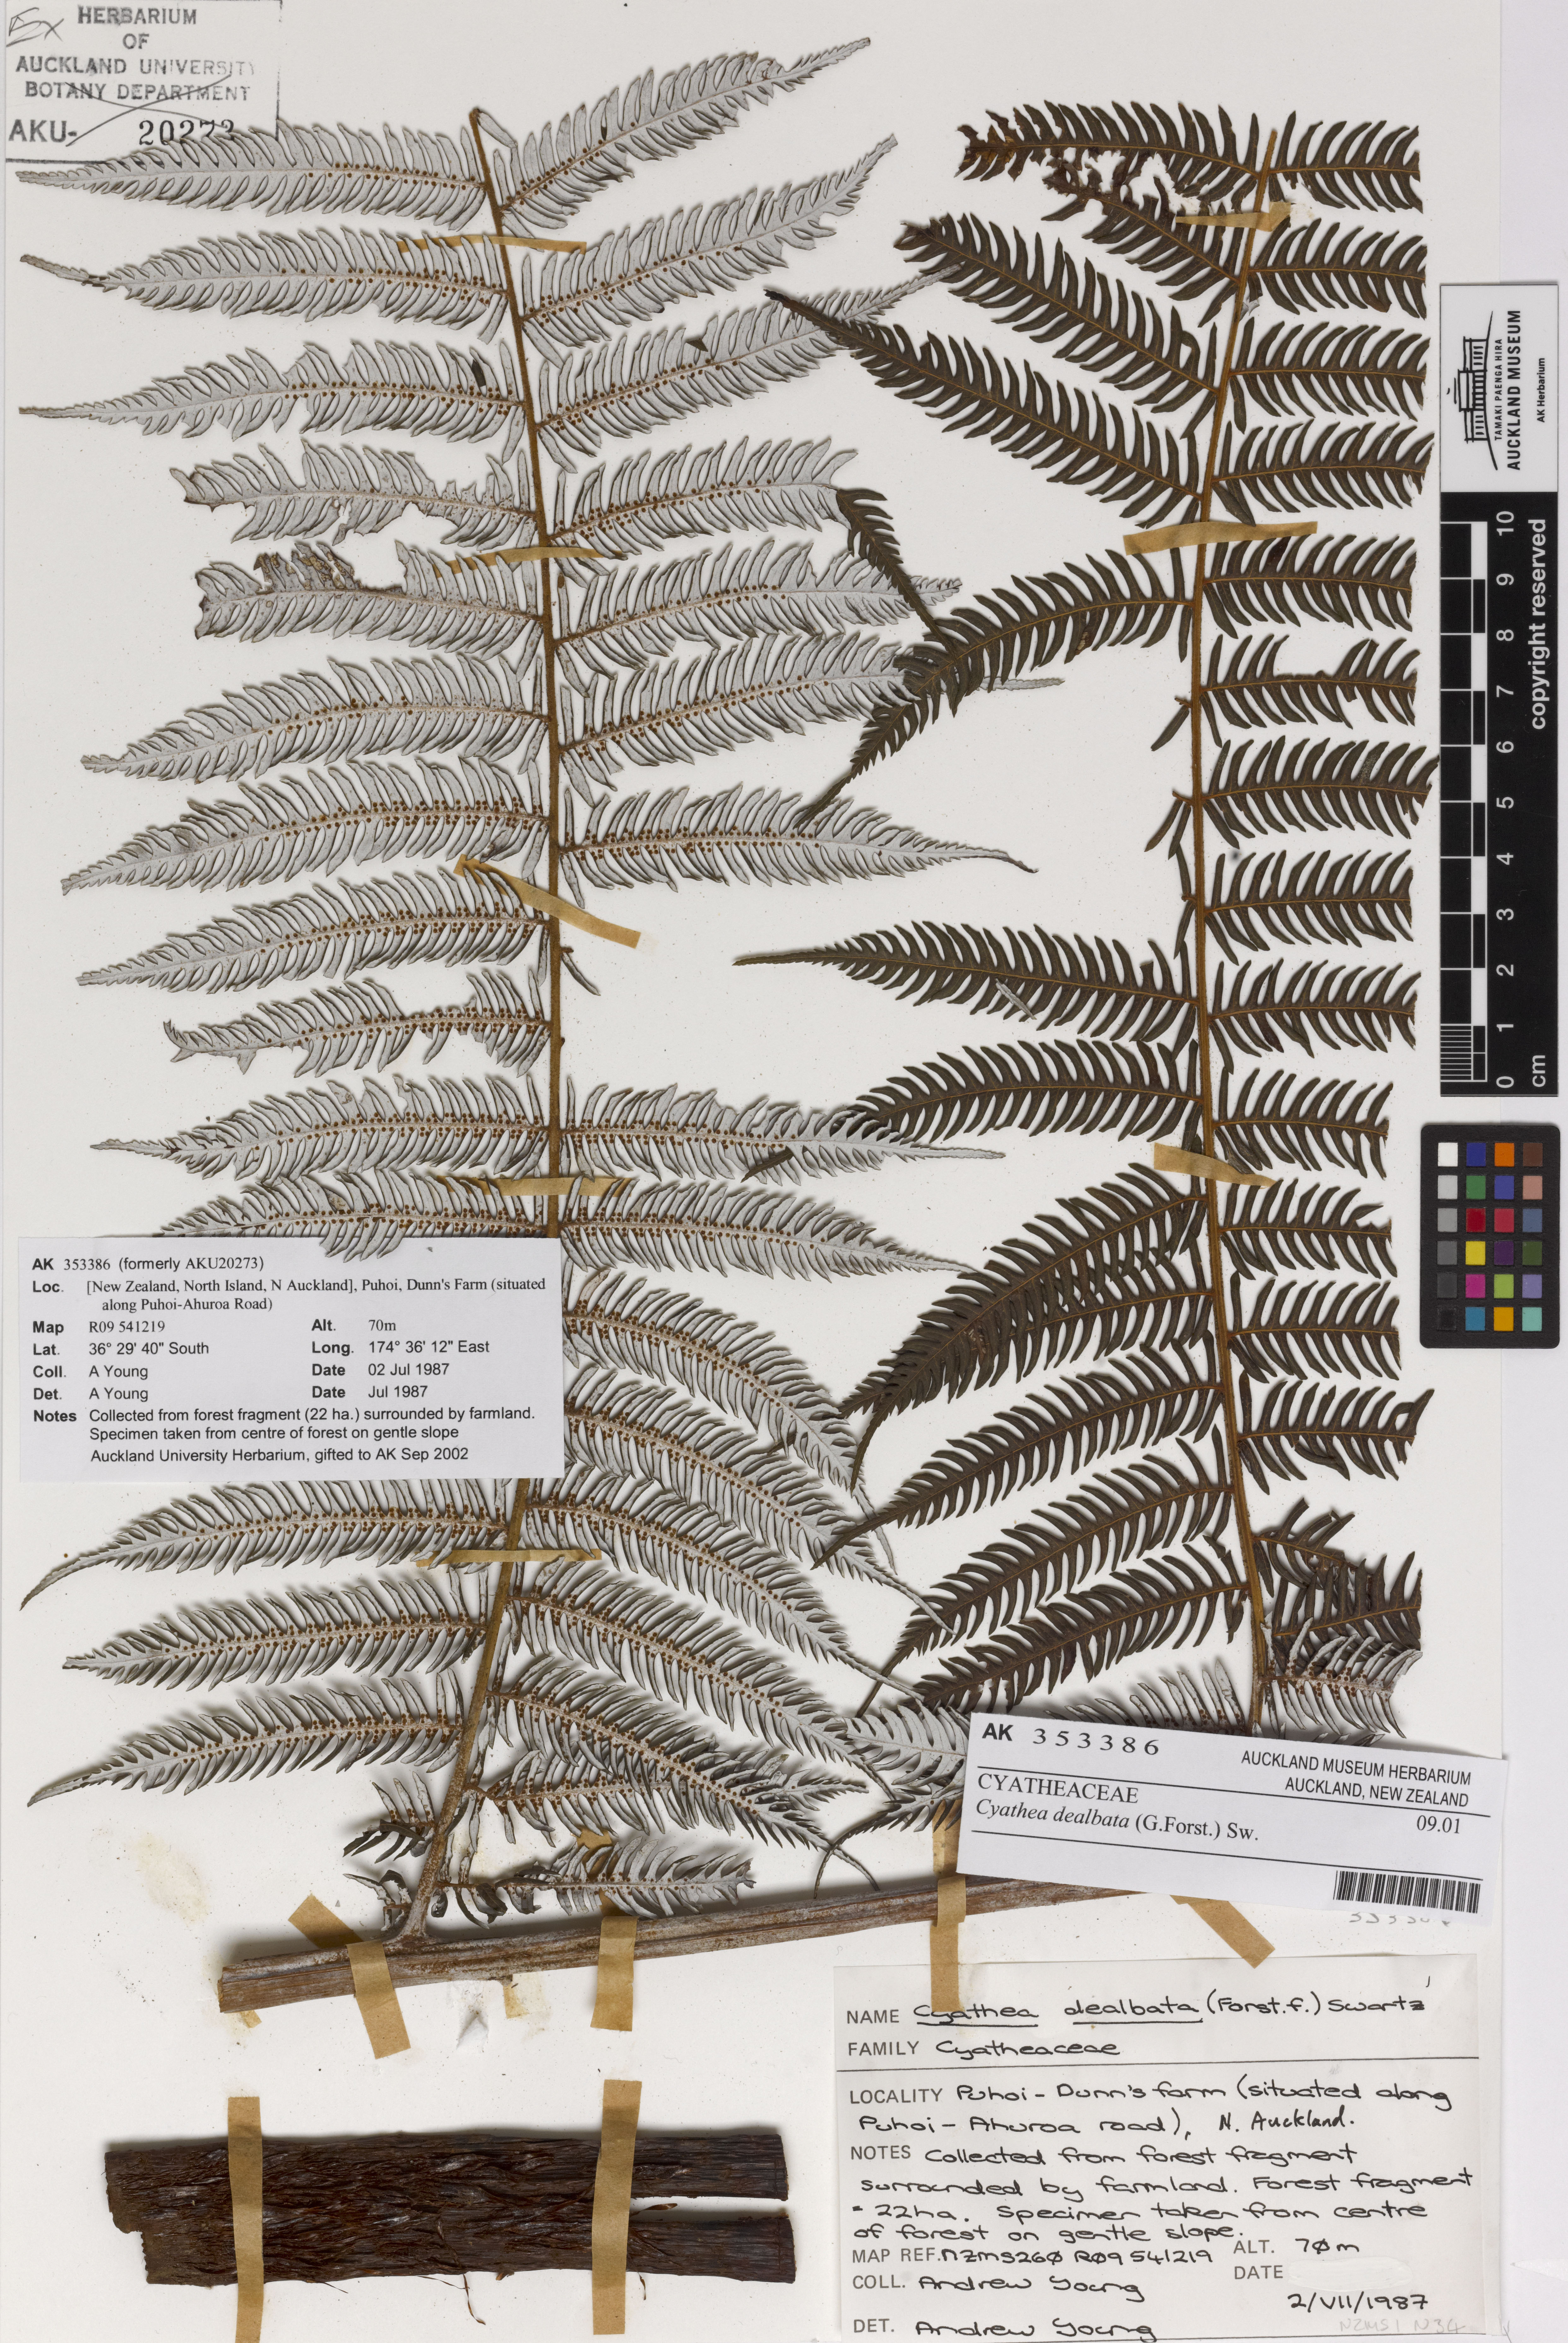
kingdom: Plantae
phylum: Tracheophyta
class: Polypodiopsida
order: Cyatheales
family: Cyatheaceae
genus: Alsophila
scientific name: Alsophila dealbata
